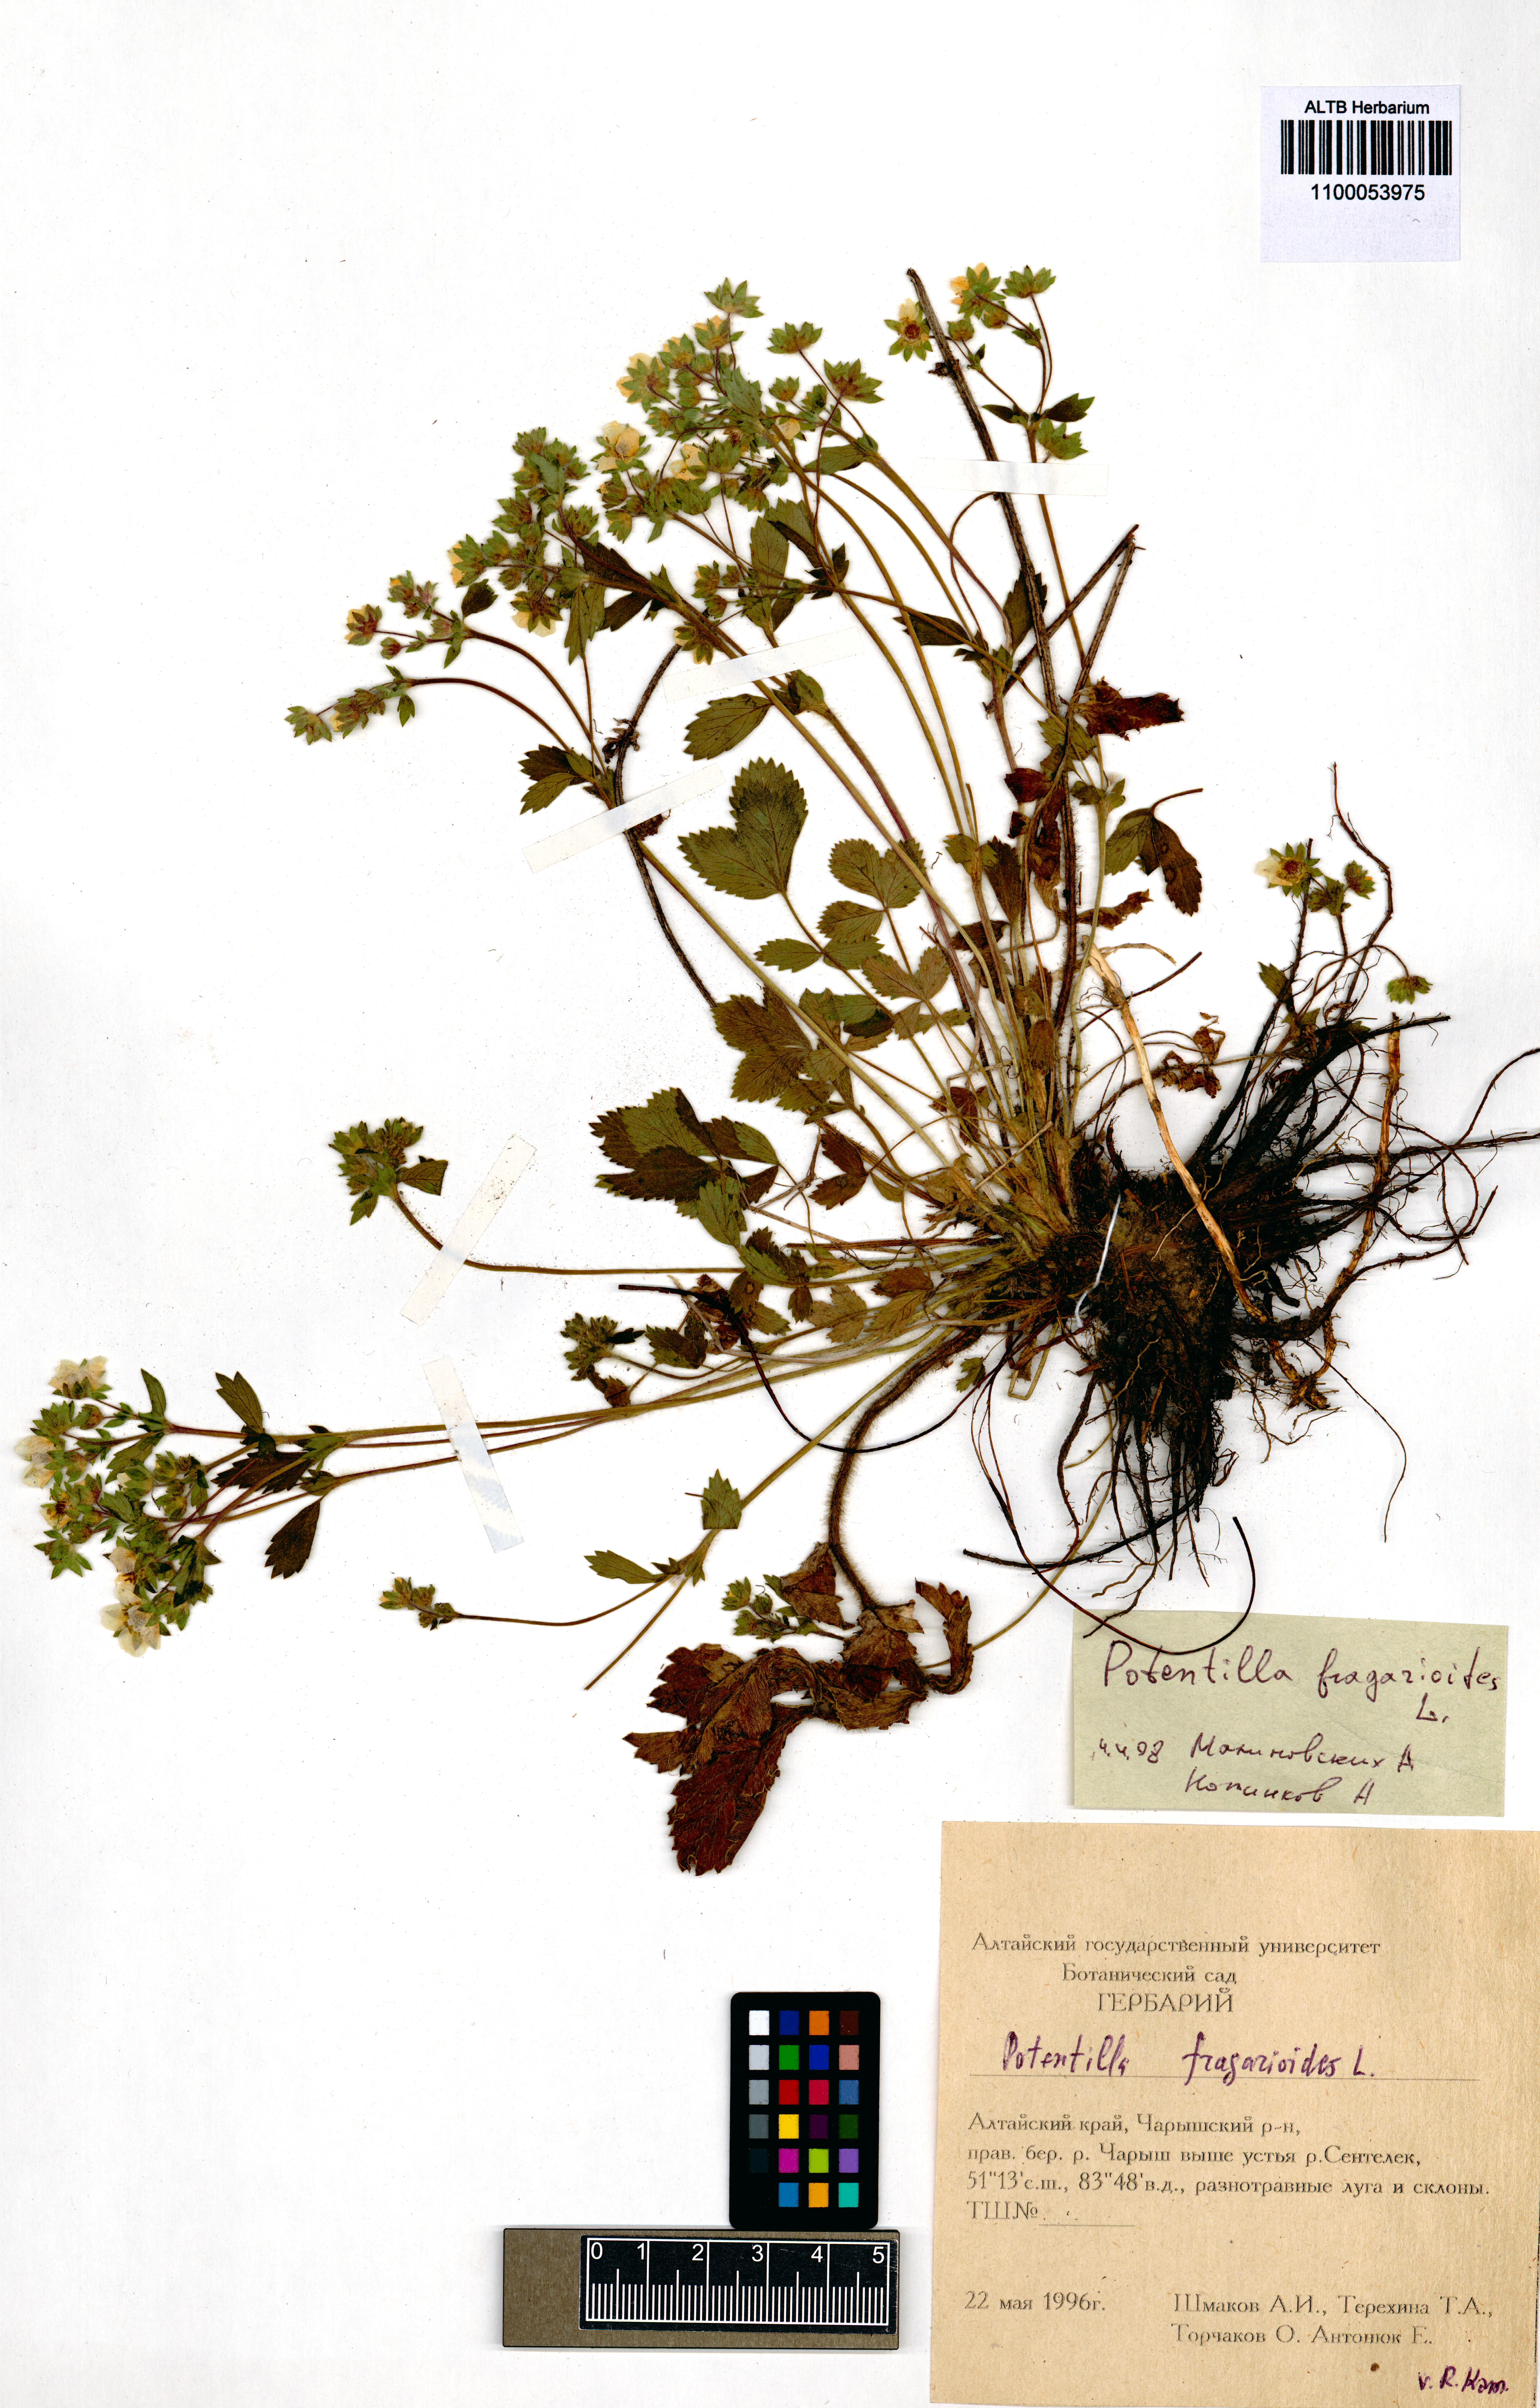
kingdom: Plantae
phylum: Tracheophyta
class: Magnoliopsida
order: Rosales
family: Rosaceae
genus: Potentilla
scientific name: Potentilla fragarioides
